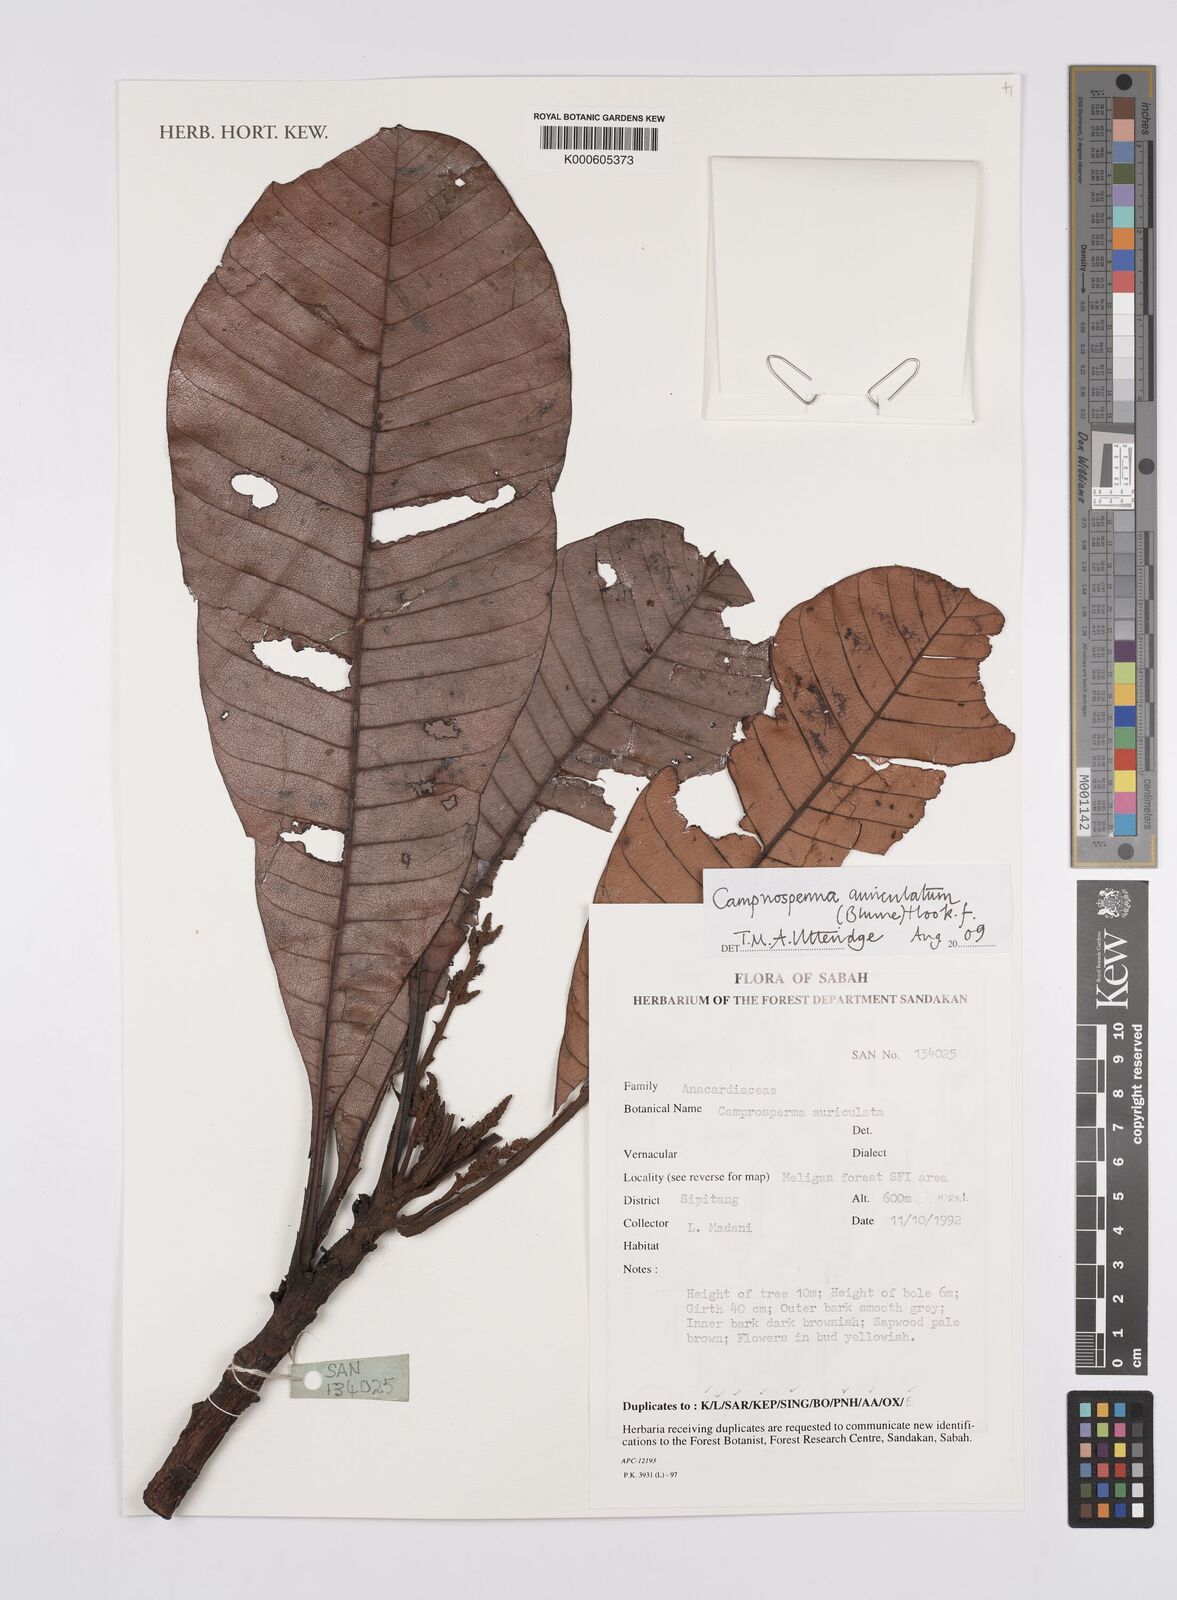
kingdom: Plantae
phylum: Tracheophyta
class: Magnoliopsida
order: Sapindales
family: Anacardiaceae
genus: Campnosperma
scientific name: Campnosperma auriculatum
